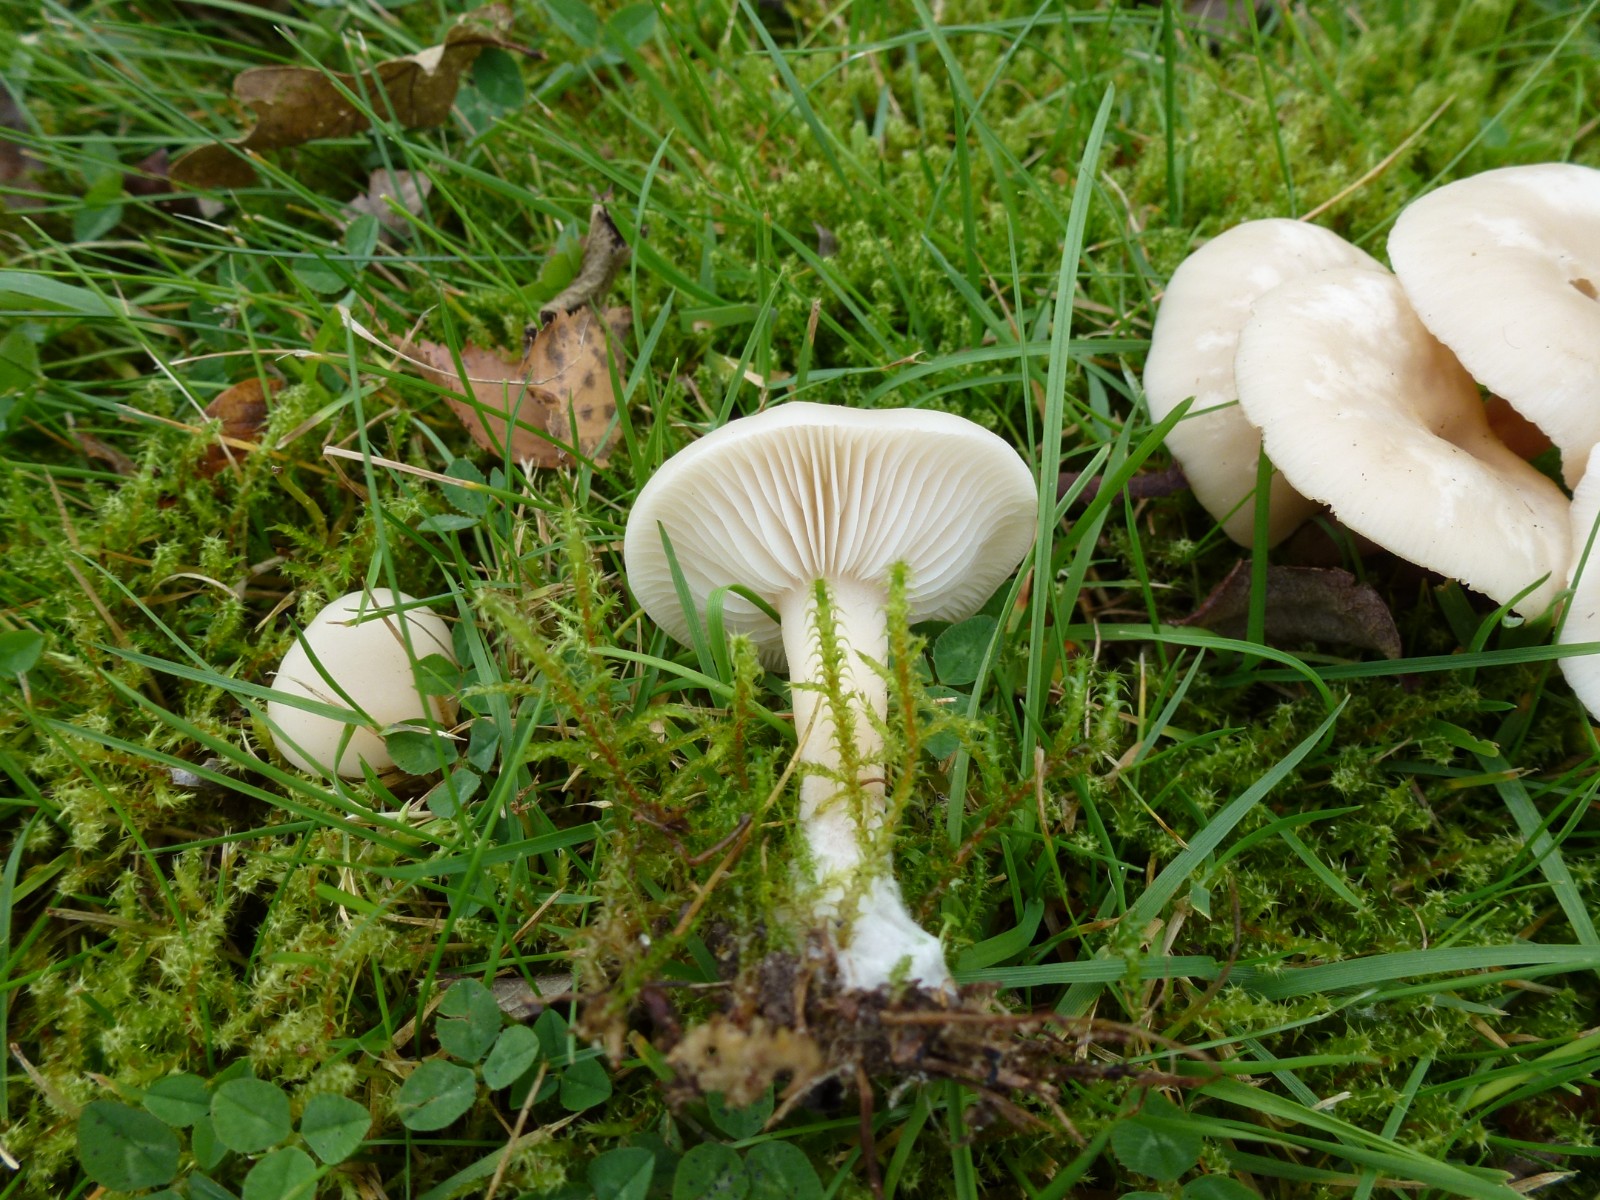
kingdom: Fungi
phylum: Basidiomycota
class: Agaricomycetes
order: Agaricales
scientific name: Agaricales
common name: champignonordenen
